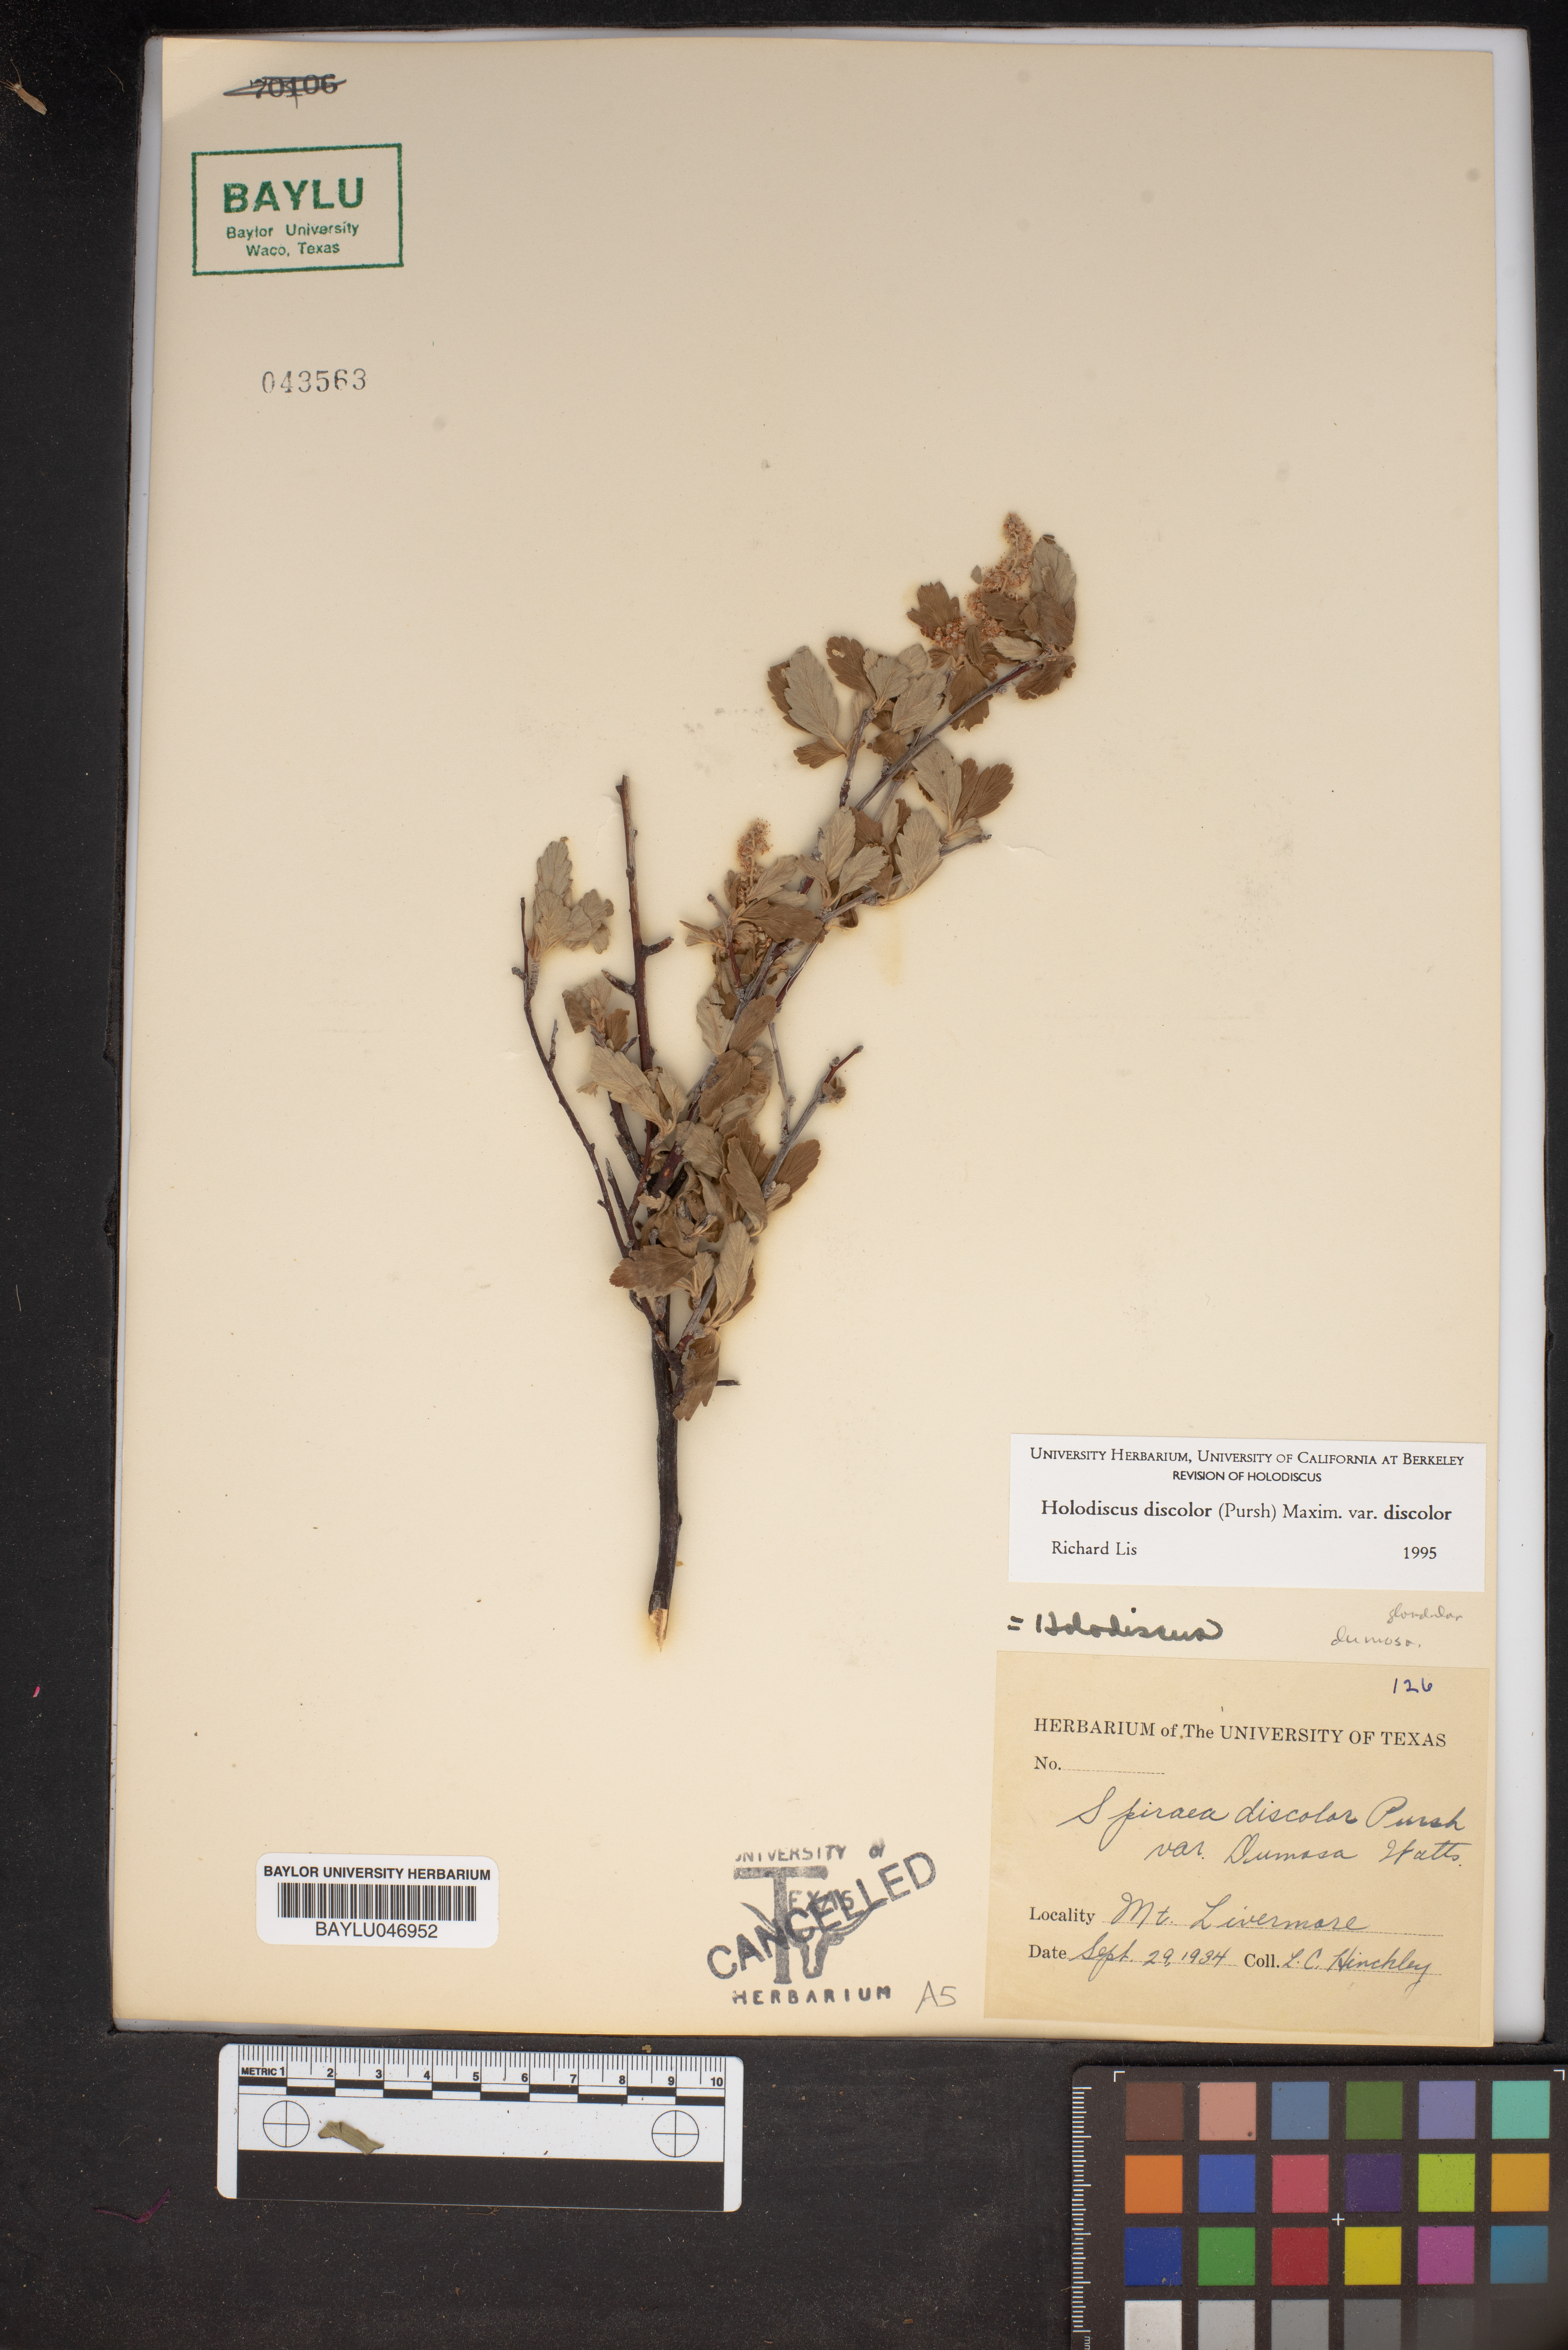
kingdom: Plantae
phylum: Tracheophyta
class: Magnoliopsida
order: Rosales
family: Rosaceae
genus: Holodiscus
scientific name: Holodiscus discolor
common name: Oceanspray
